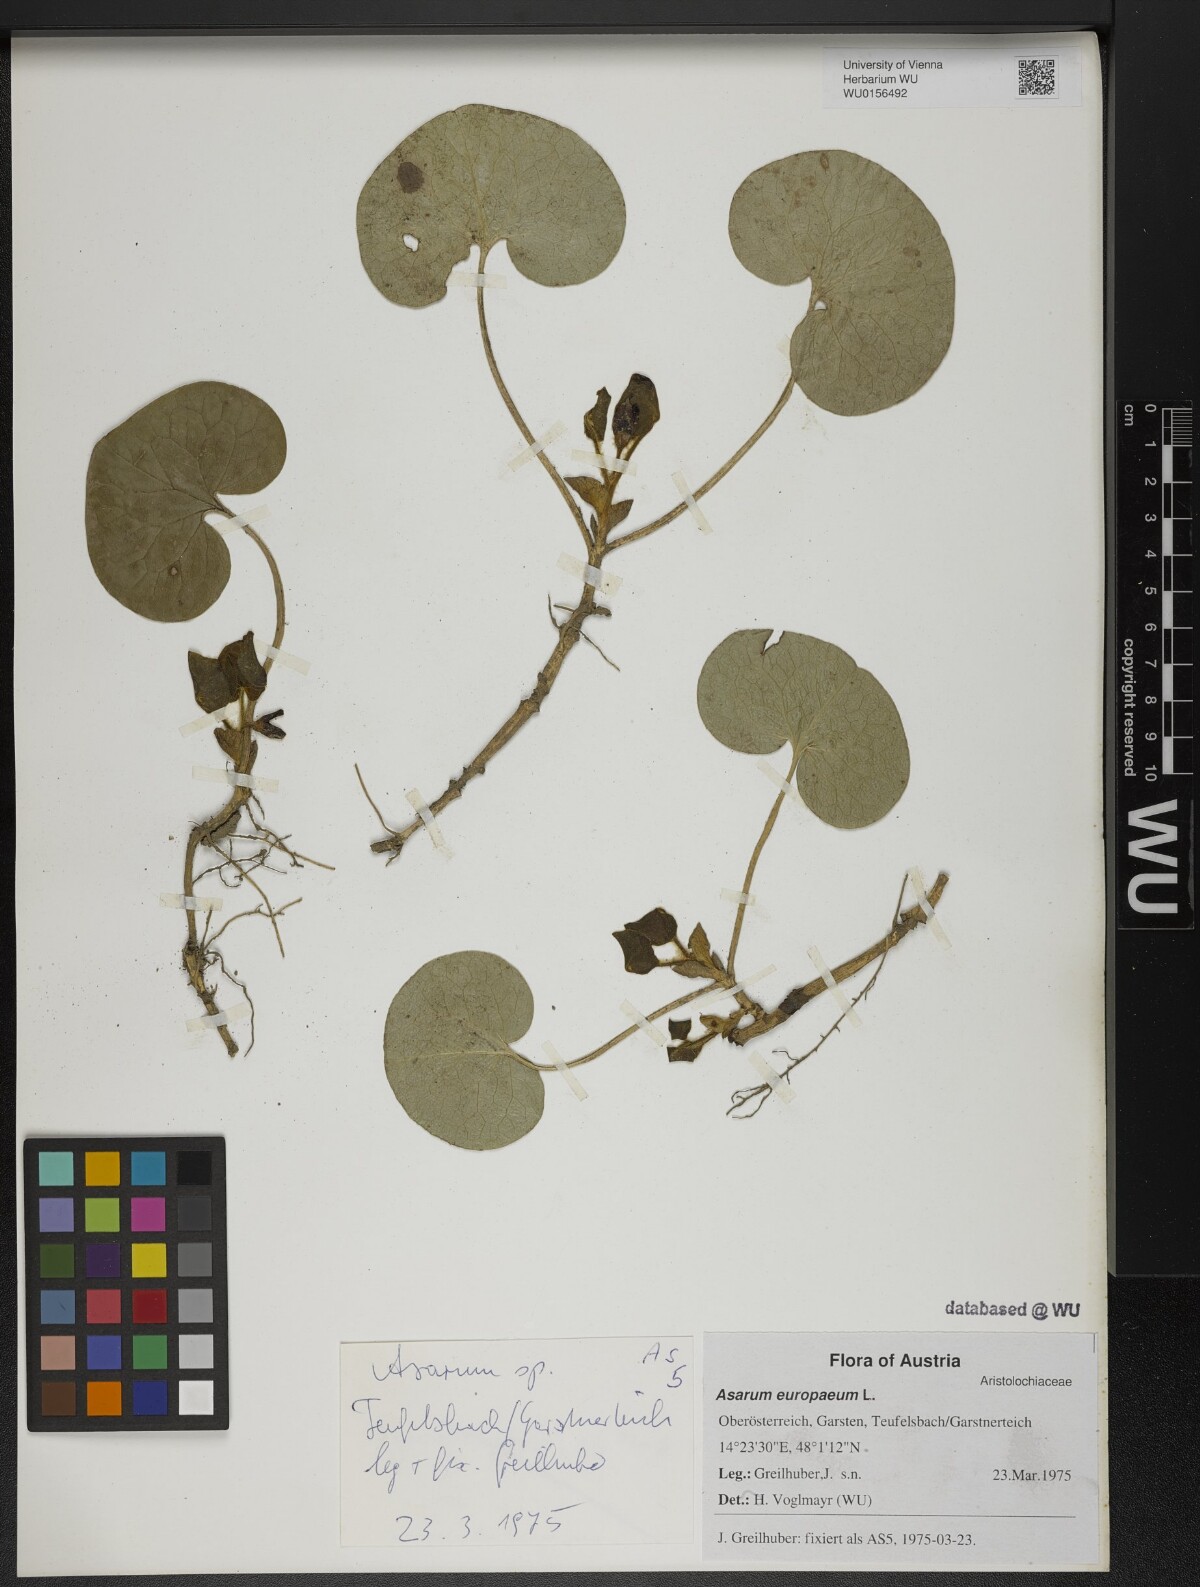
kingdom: Plantae
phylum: Tracheophyta
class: Magnoliopsida
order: Piperales
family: Aristolochiaceae
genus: Asarum
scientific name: Asarum europaeum
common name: Asarabacca
